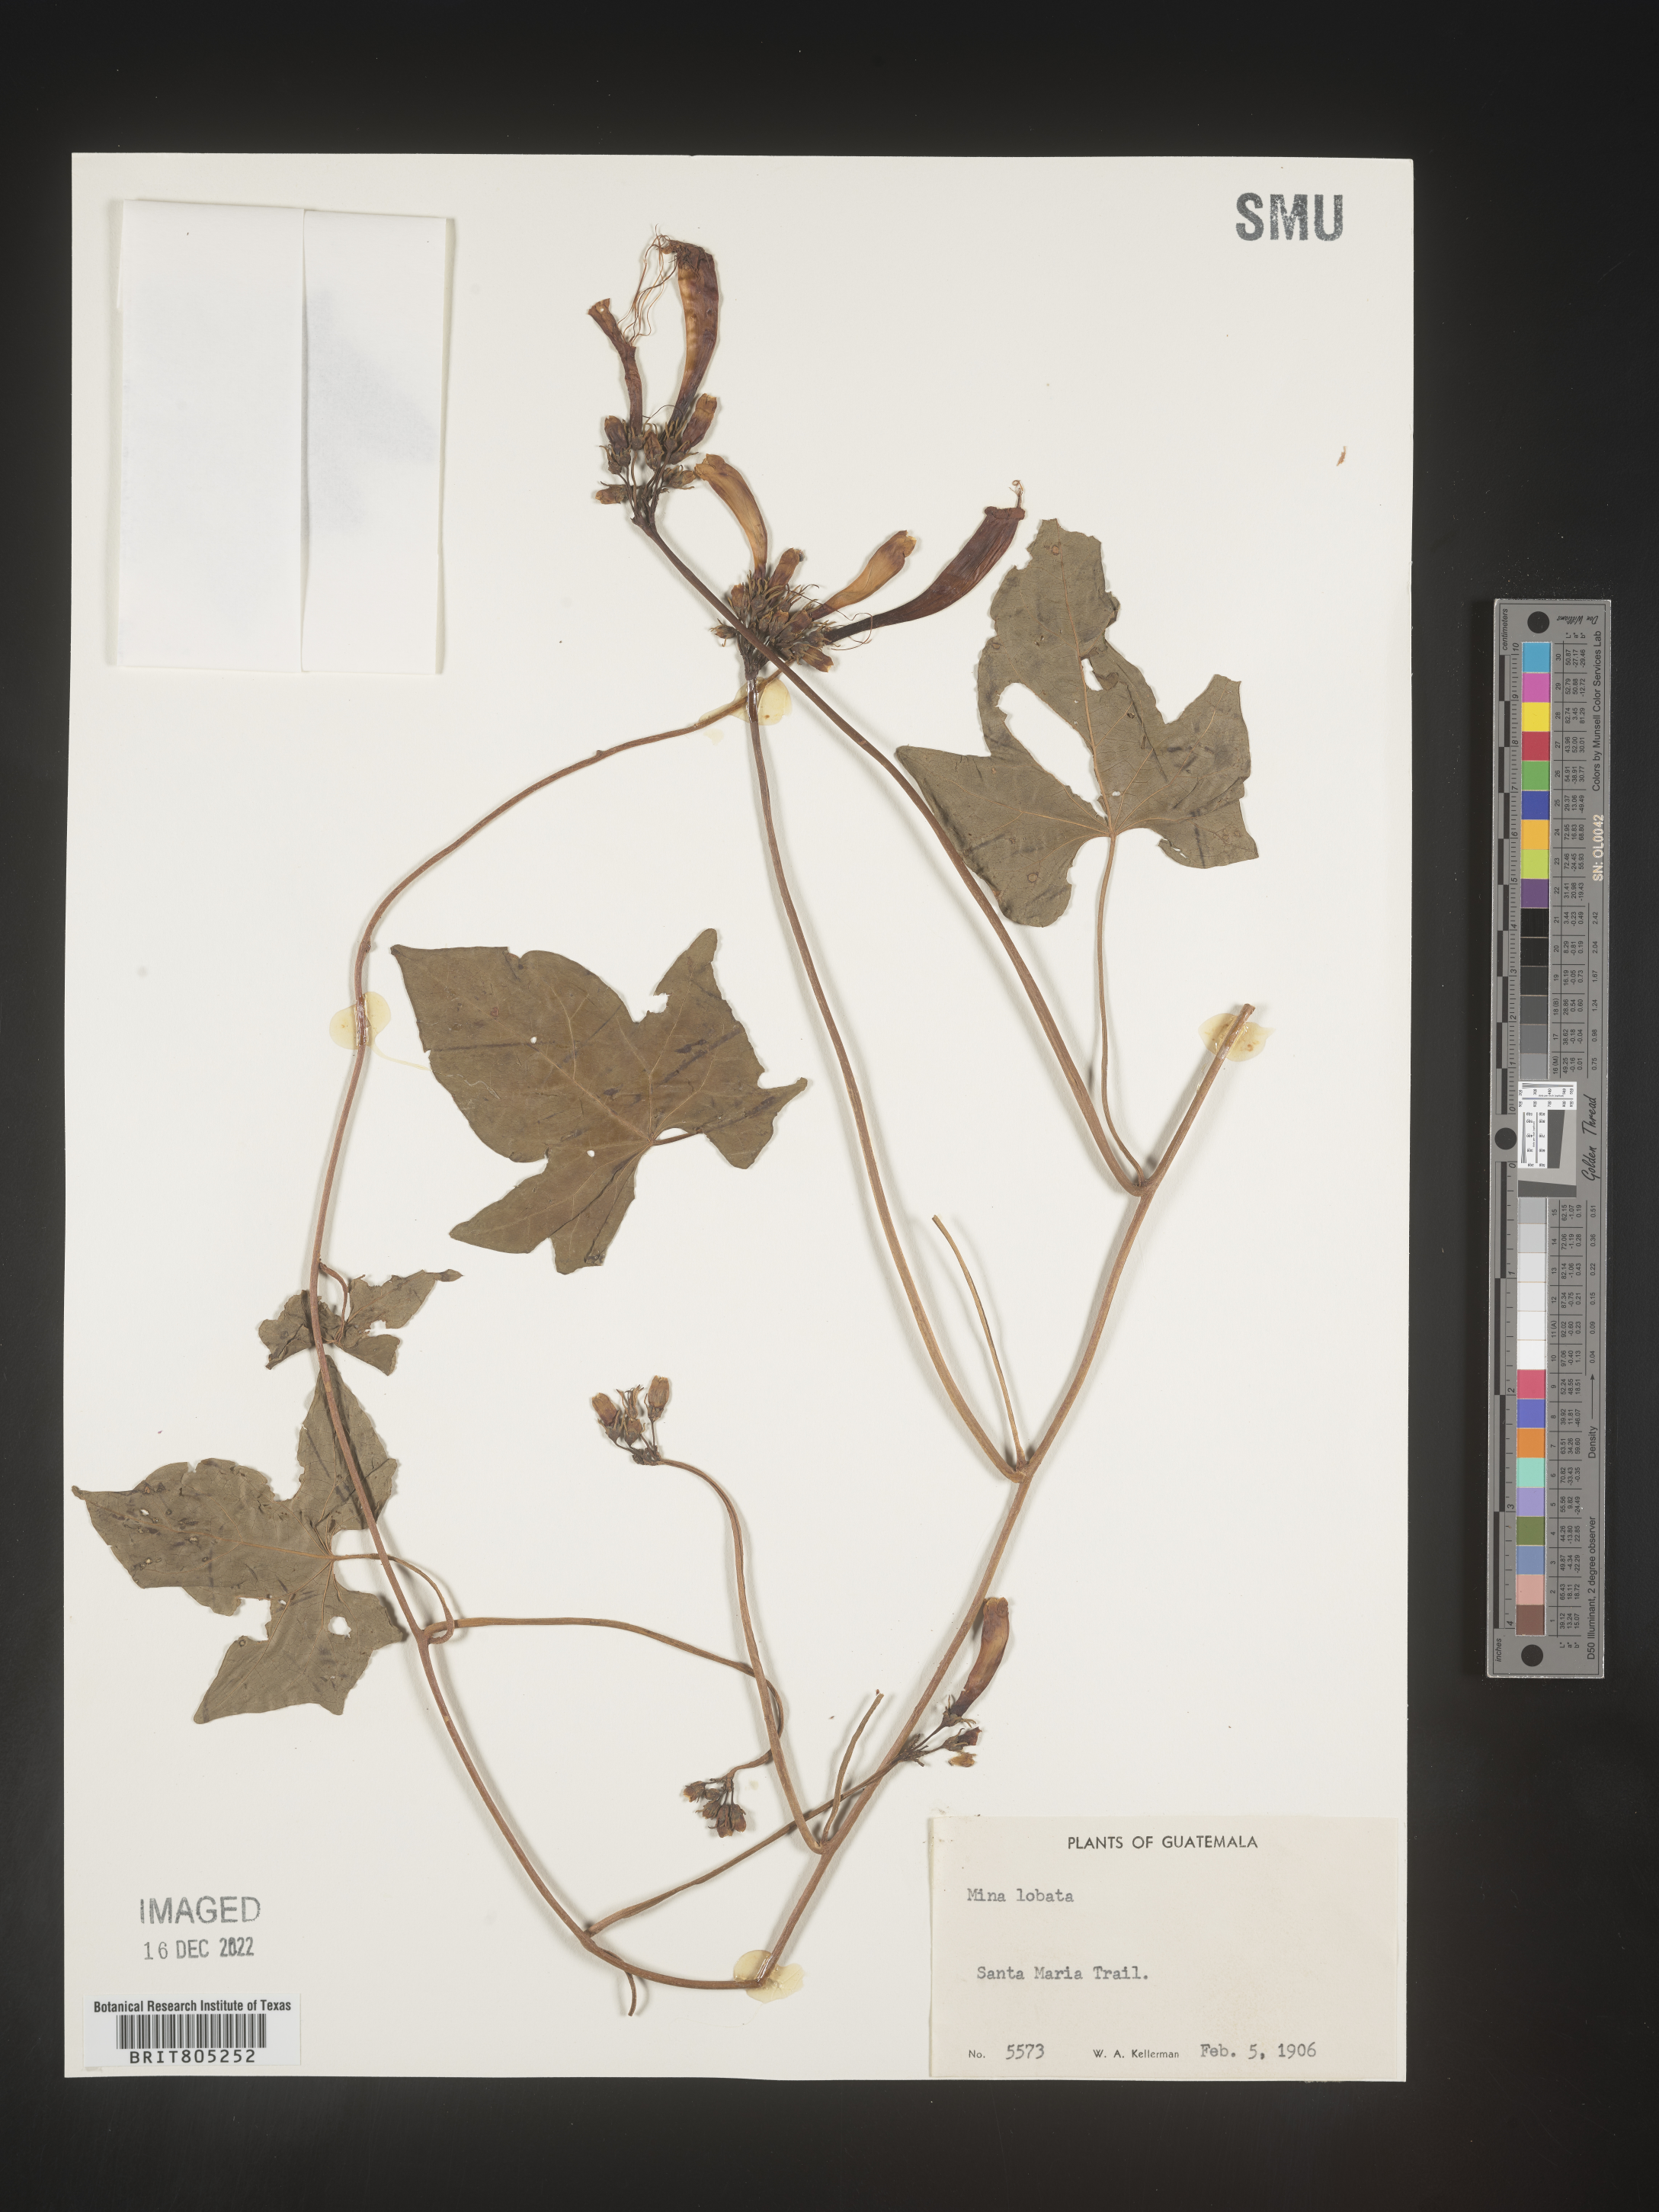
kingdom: Plantae
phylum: Tracheophyta
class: Magnoliopsida
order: Solanales
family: Convolvulaceae
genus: Ipomoea
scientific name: Ipomoea
